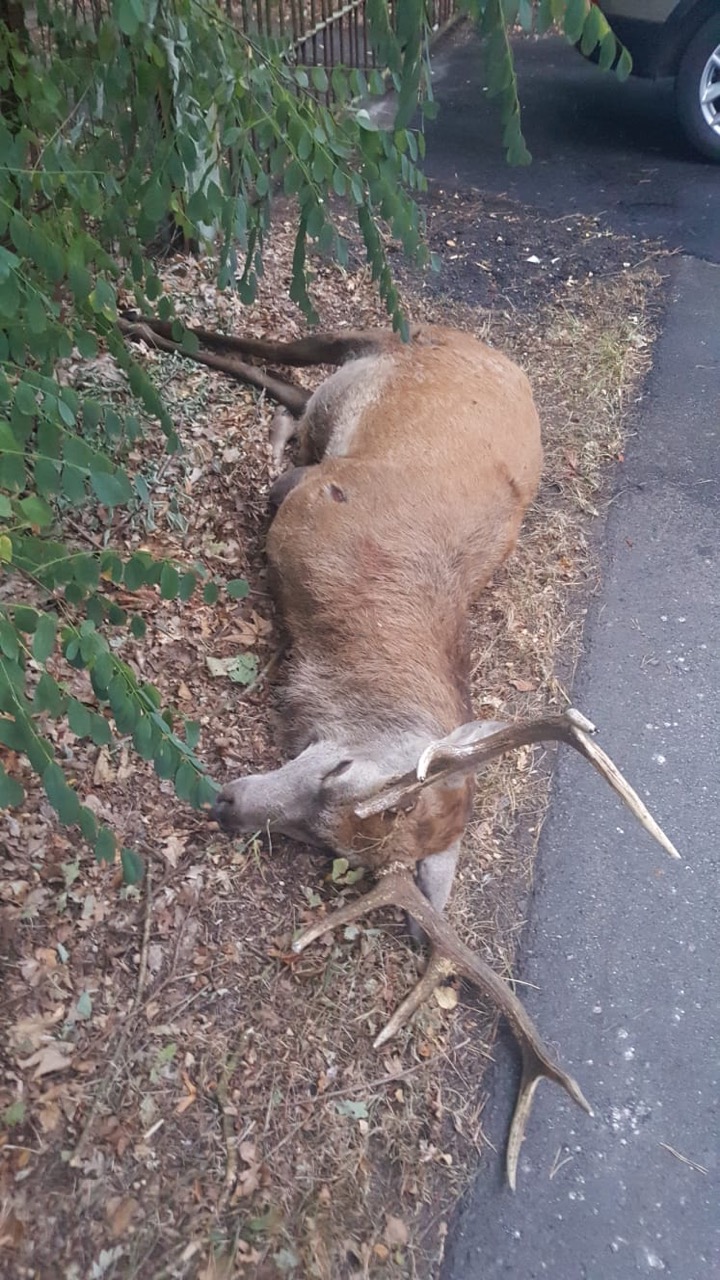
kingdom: Animalia
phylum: Chordata
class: Mammalia
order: Artiodactyla
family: Cervidae
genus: Cervus
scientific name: Cervus elaphus
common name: Red deer
